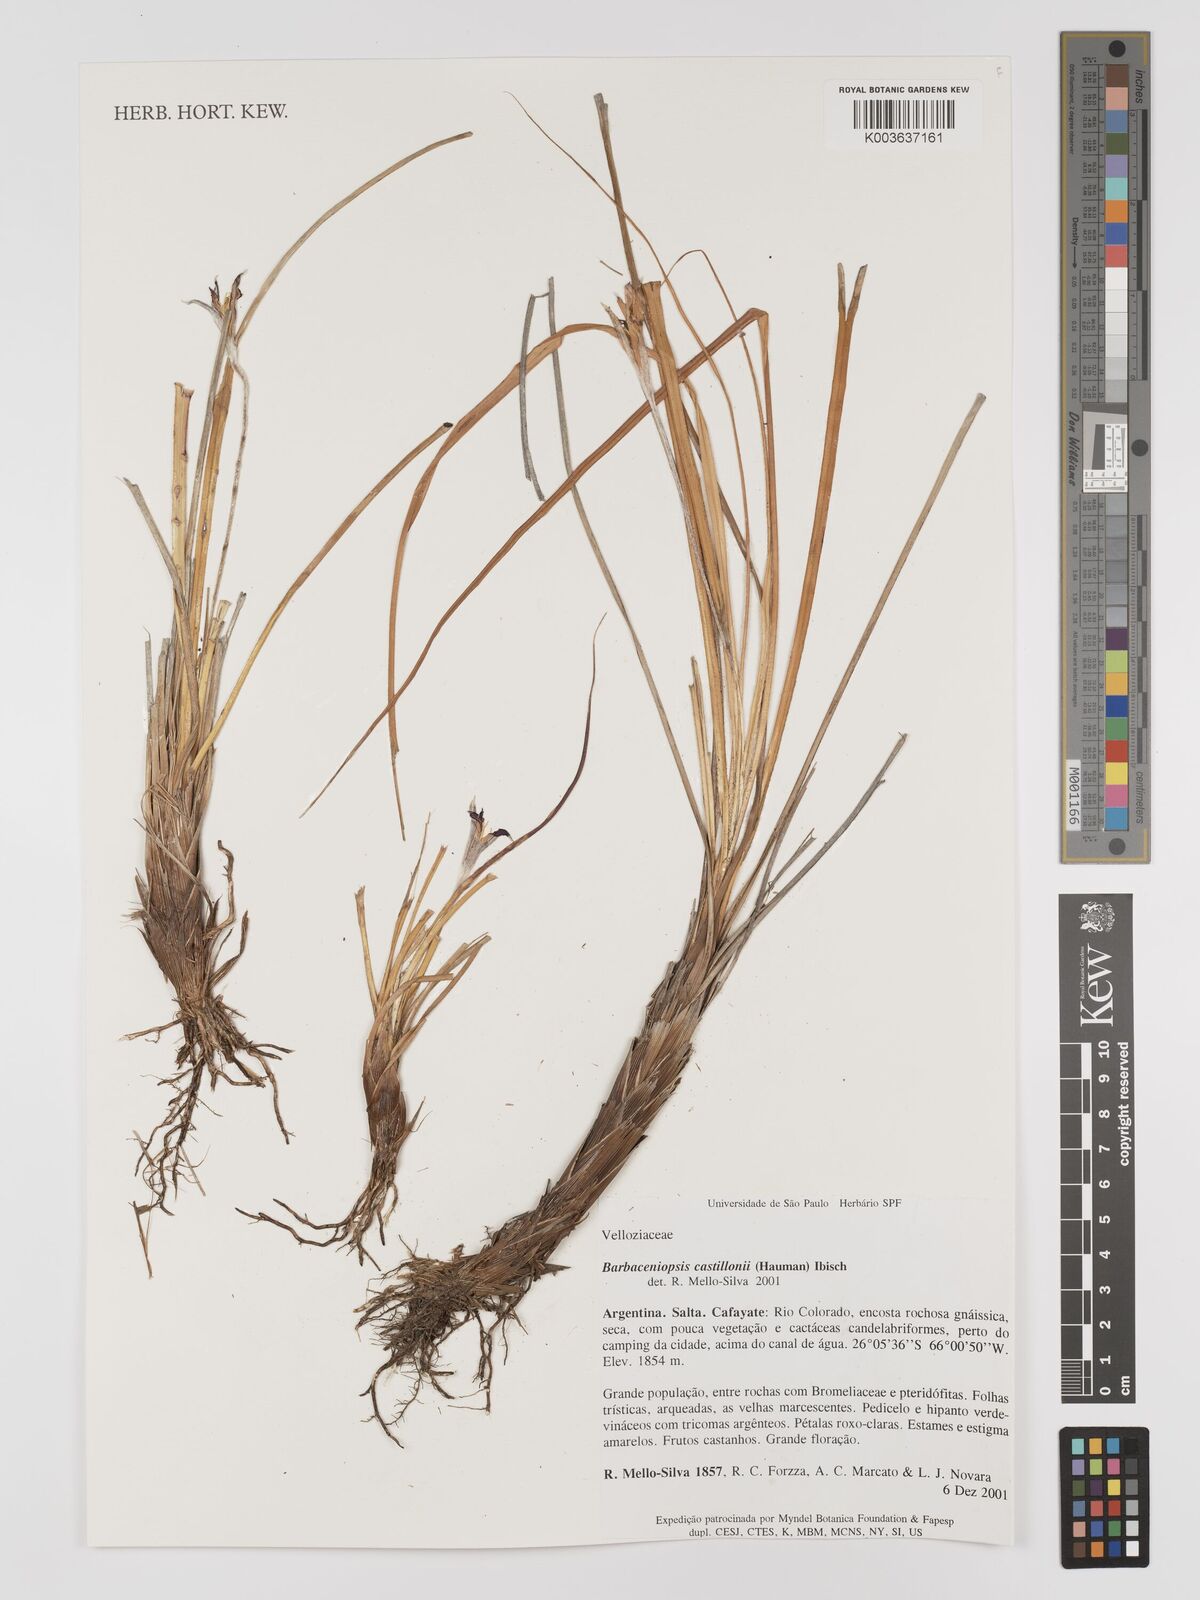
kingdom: Plantae
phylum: Tracheophyta
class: Liliopsida
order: Pandanales
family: Velloziaceae
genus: Barbaceniopsis
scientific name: Barbaceniopsis boliviensis
